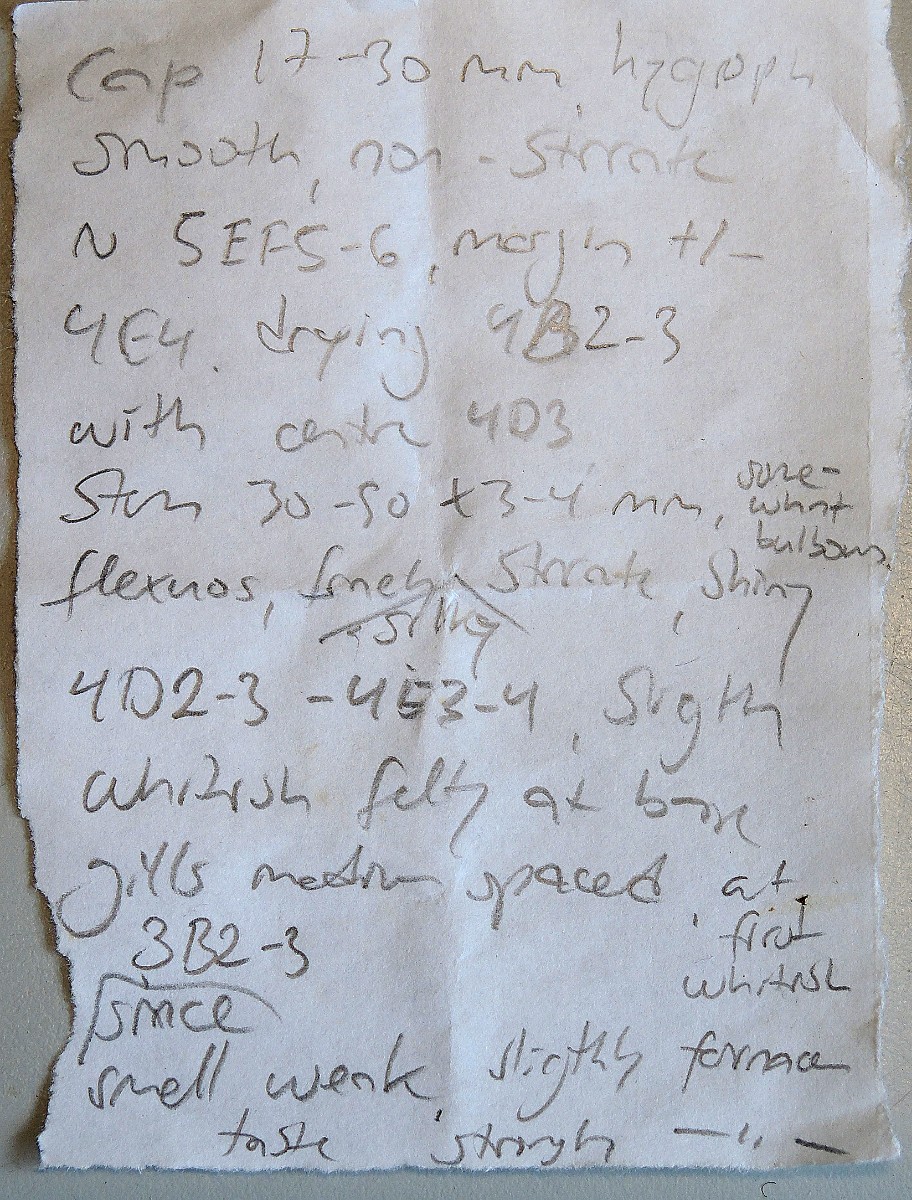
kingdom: Fungi
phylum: Basidiomycota
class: Agaricomycetes
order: Agaricales
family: Tricholomataceae
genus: Clitocybe
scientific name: Clitocybe foetens
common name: olivengrå tragthat
